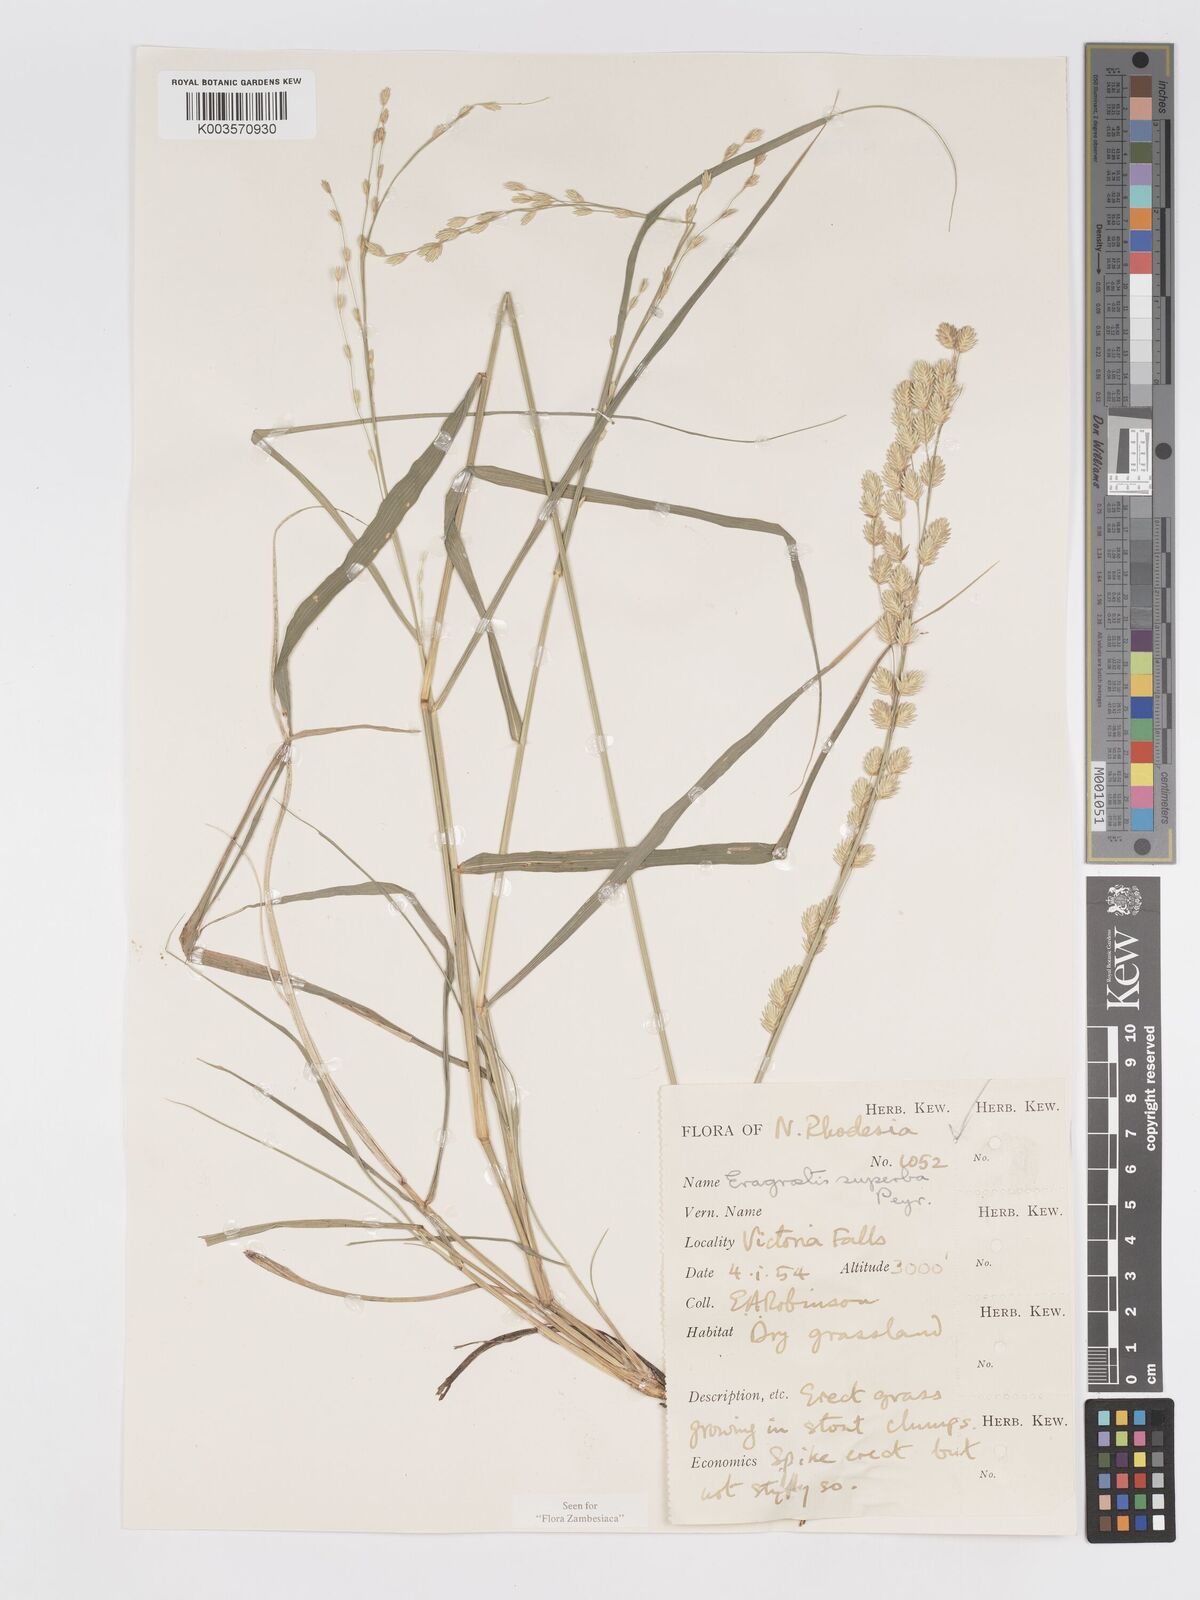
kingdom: Plantae
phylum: Tracheophyta
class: Liliopsida
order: Poales
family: Poaceae
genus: Eragrostis
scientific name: Eragrostis superba
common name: Wilman lovegrass
